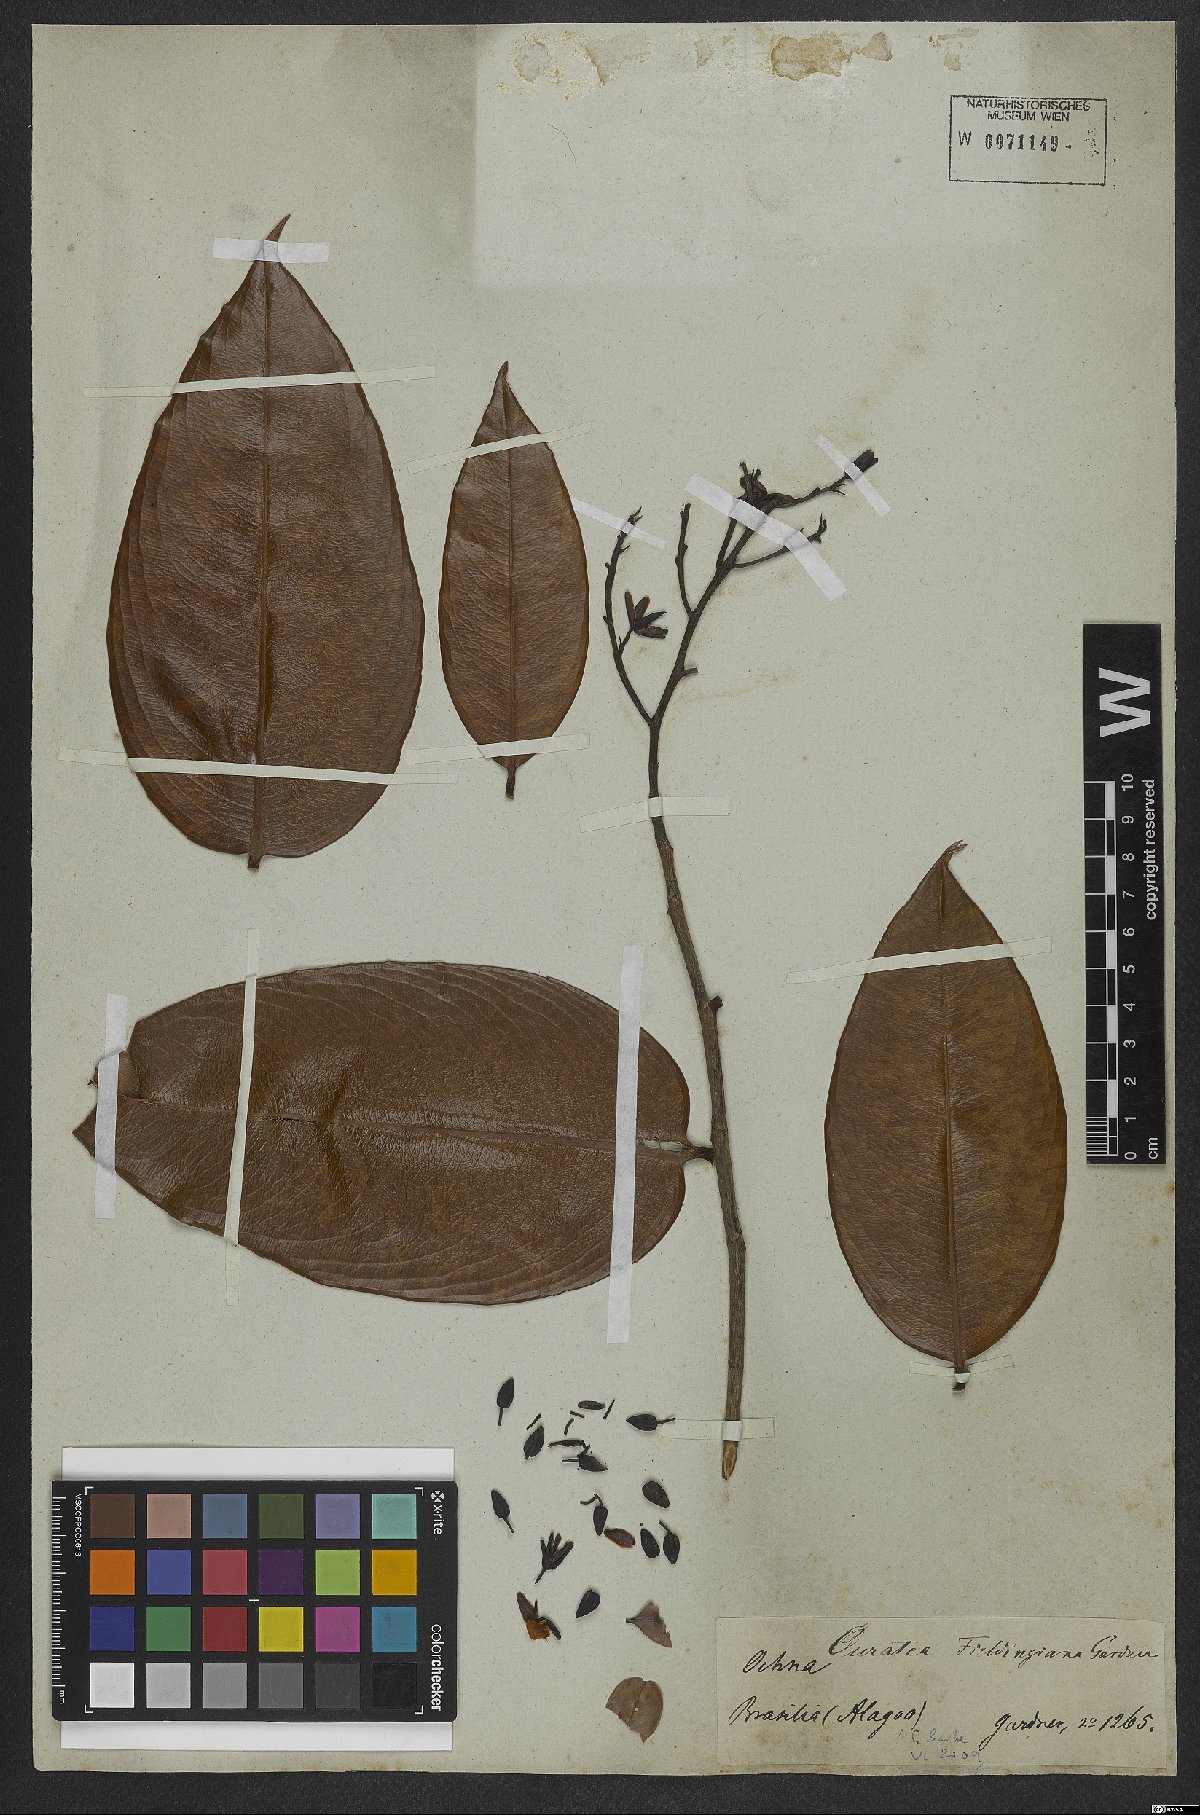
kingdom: Plantae
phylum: Tracheophyta
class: Magnoliopsida
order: Malpighiales
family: Ochnaceae
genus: Ouratea
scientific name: Ouratea fieldingiana
